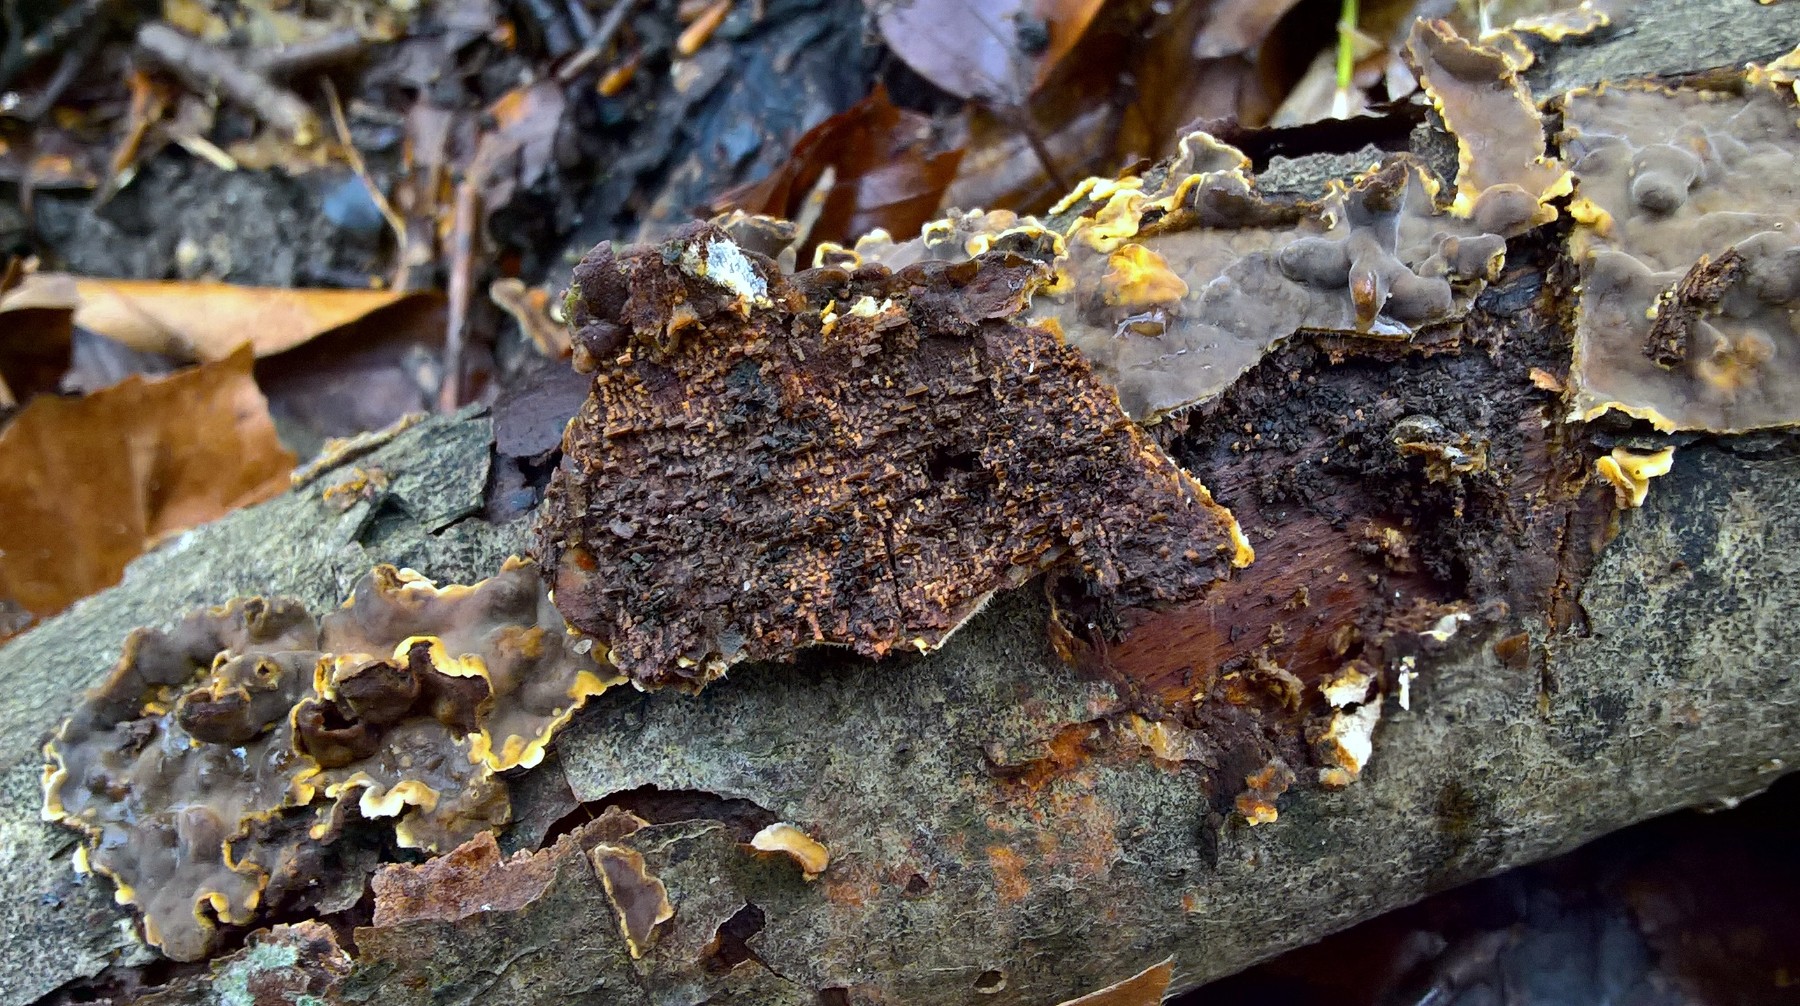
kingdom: Fungi
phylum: Basidiomycota
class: Agaricomycetes
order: Russulales
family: Stereaceae
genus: Stereum
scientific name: Stereum hirsutum
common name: håret lædersvamp
